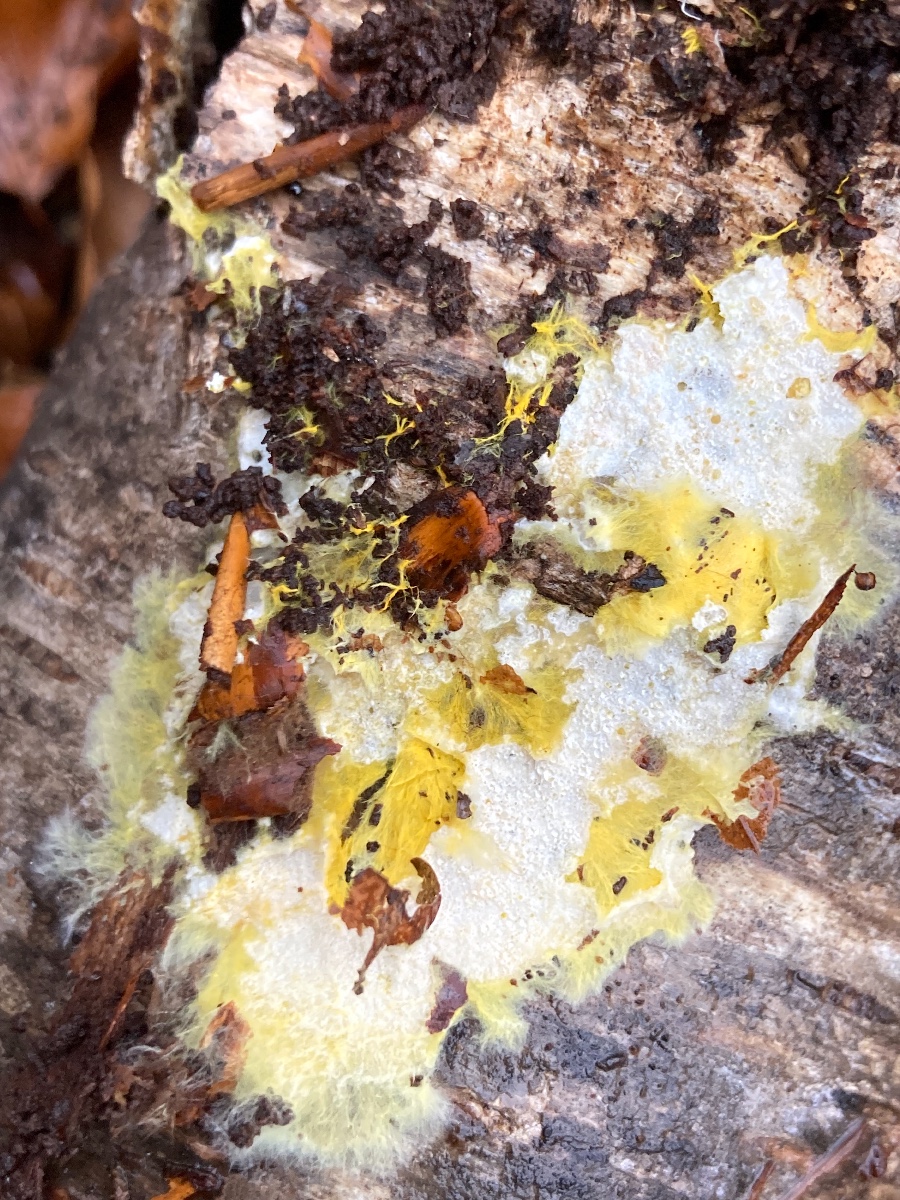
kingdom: Fungi
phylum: Basidiomycota
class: Agaricomycetes
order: Atheliales
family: Atheliaceae
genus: Piloderma
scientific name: Piloderma bicolor
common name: gul førnehinde
